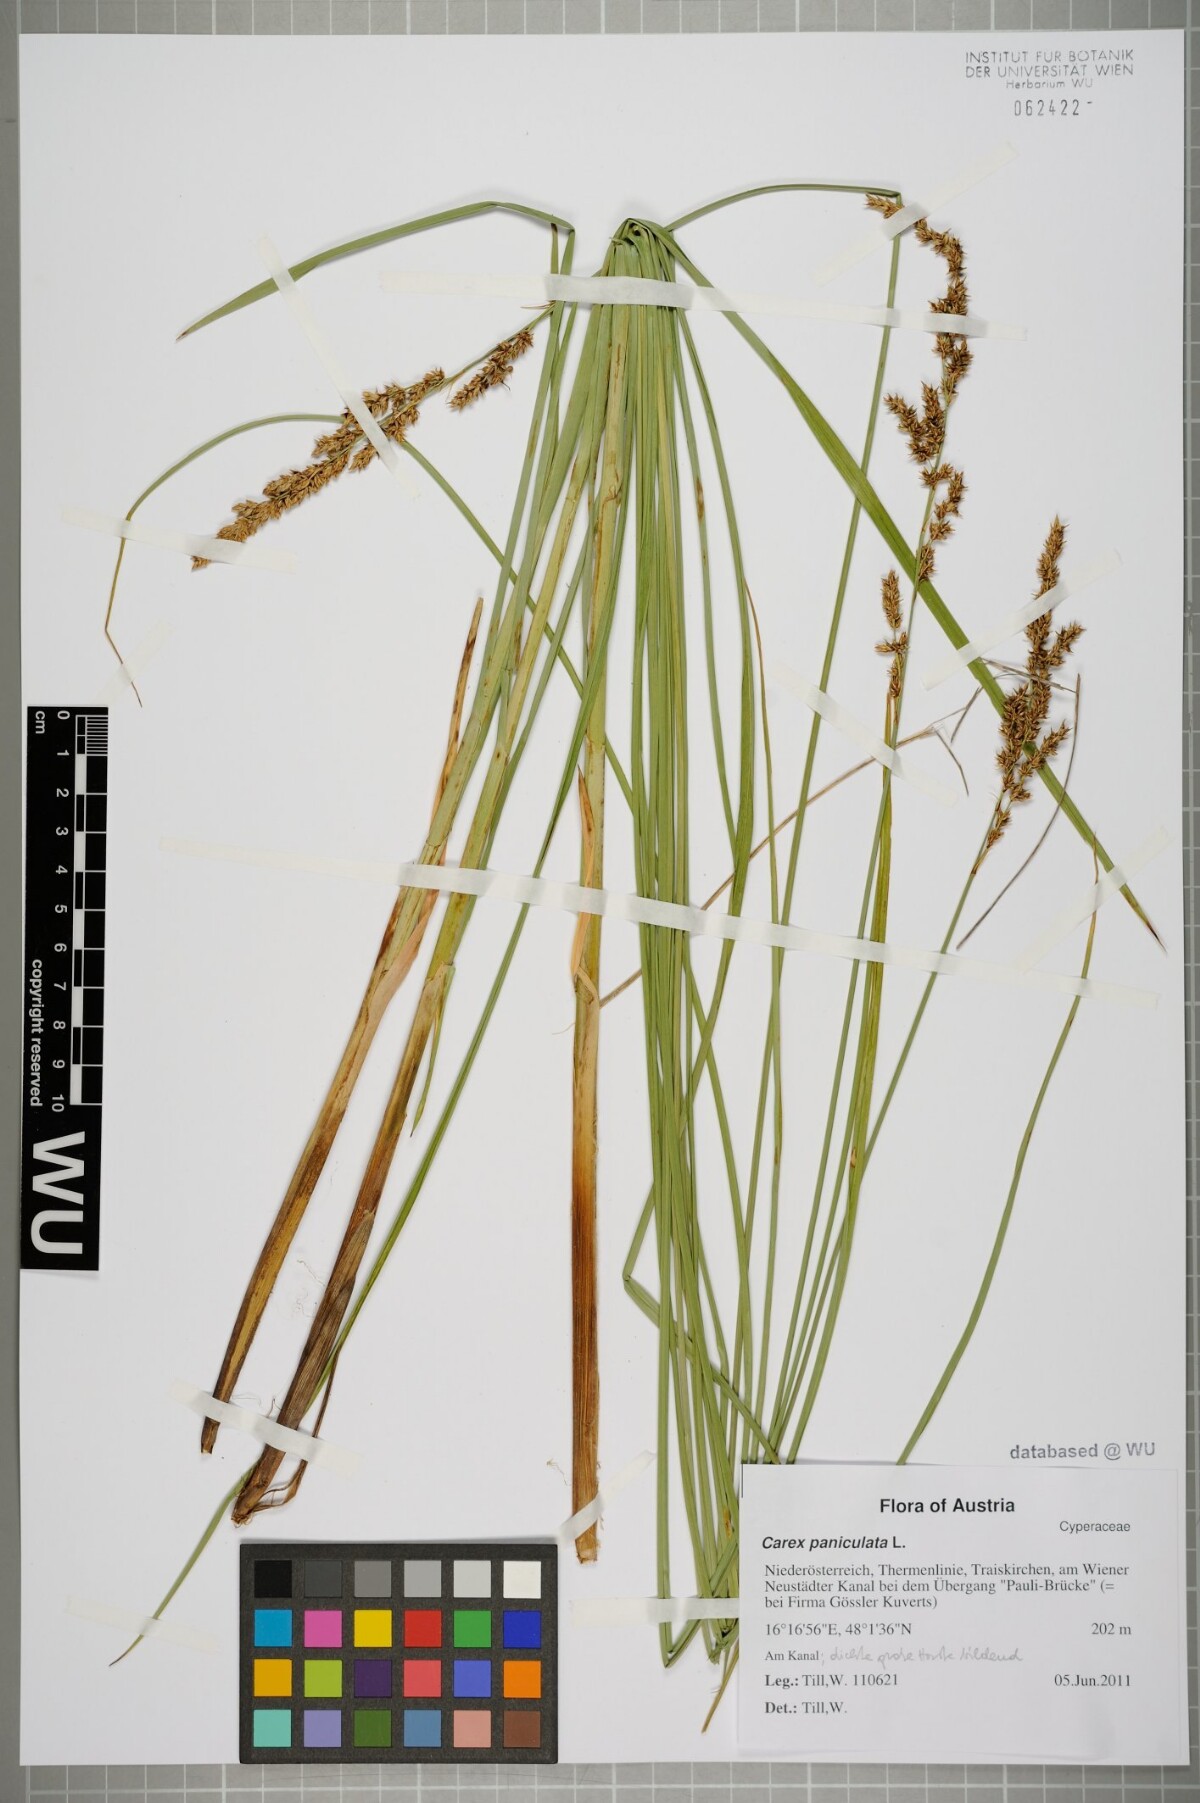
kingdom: Plantae
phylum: Tracheophyta
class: Liliopsida
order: Poales
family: Cyperaceae
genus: Carex
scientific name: Carex paniculata
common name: Greater tussock-sedge
